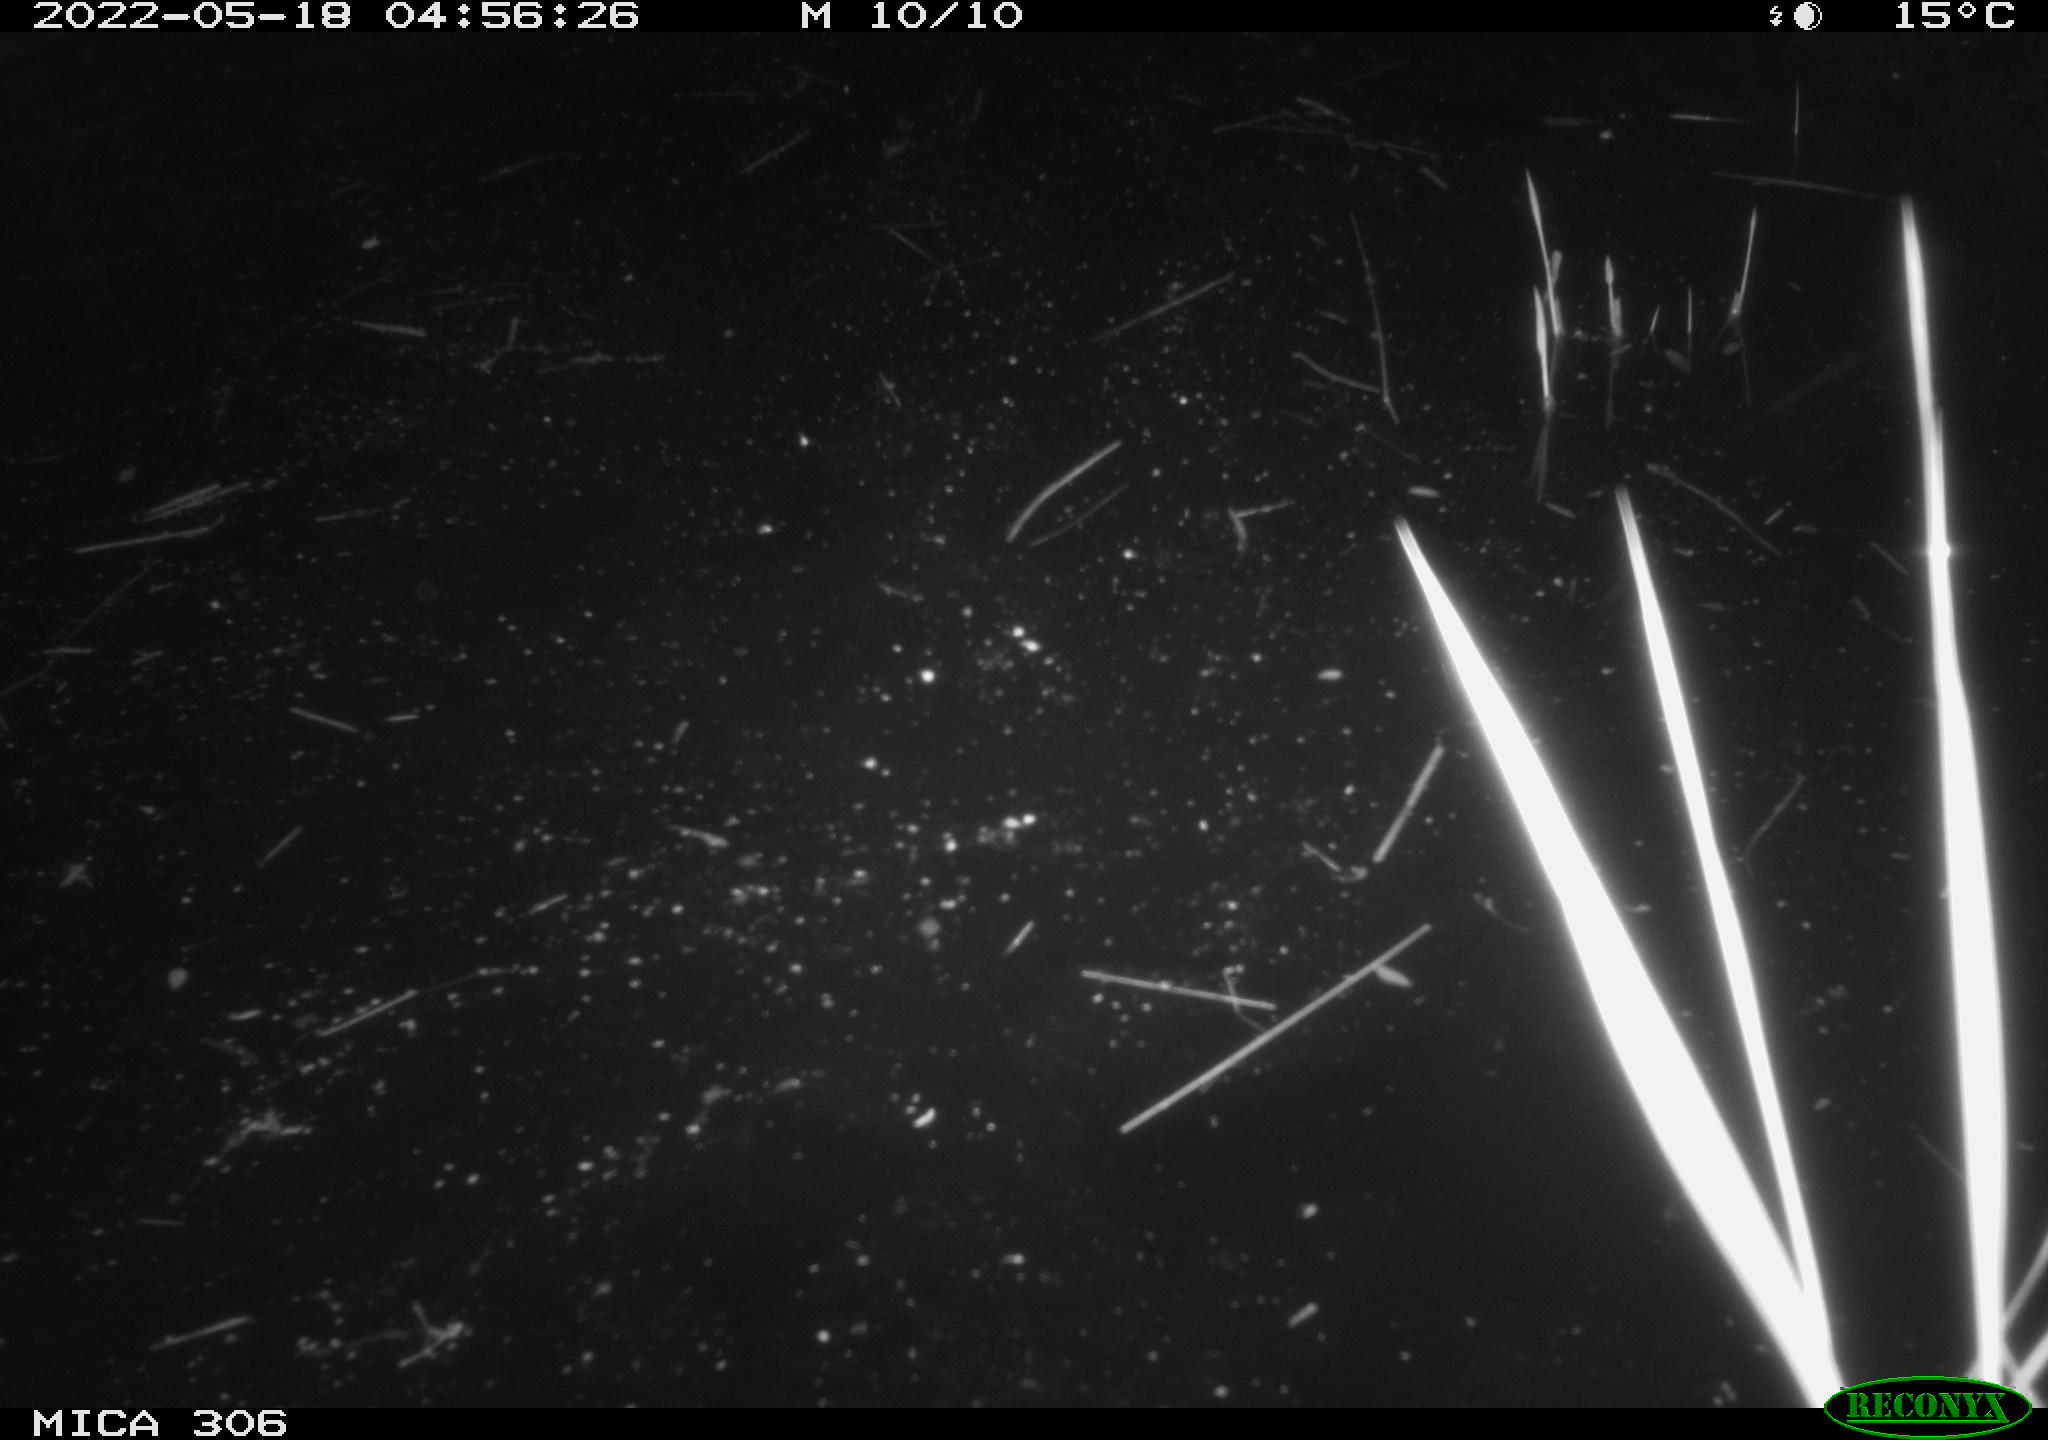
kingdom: Animalia
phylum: Chordata
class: Mammalia
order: Rodentia
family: Cricetidae
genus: Ondatra
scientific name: Ondatra zibethicus
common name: Muskrat
